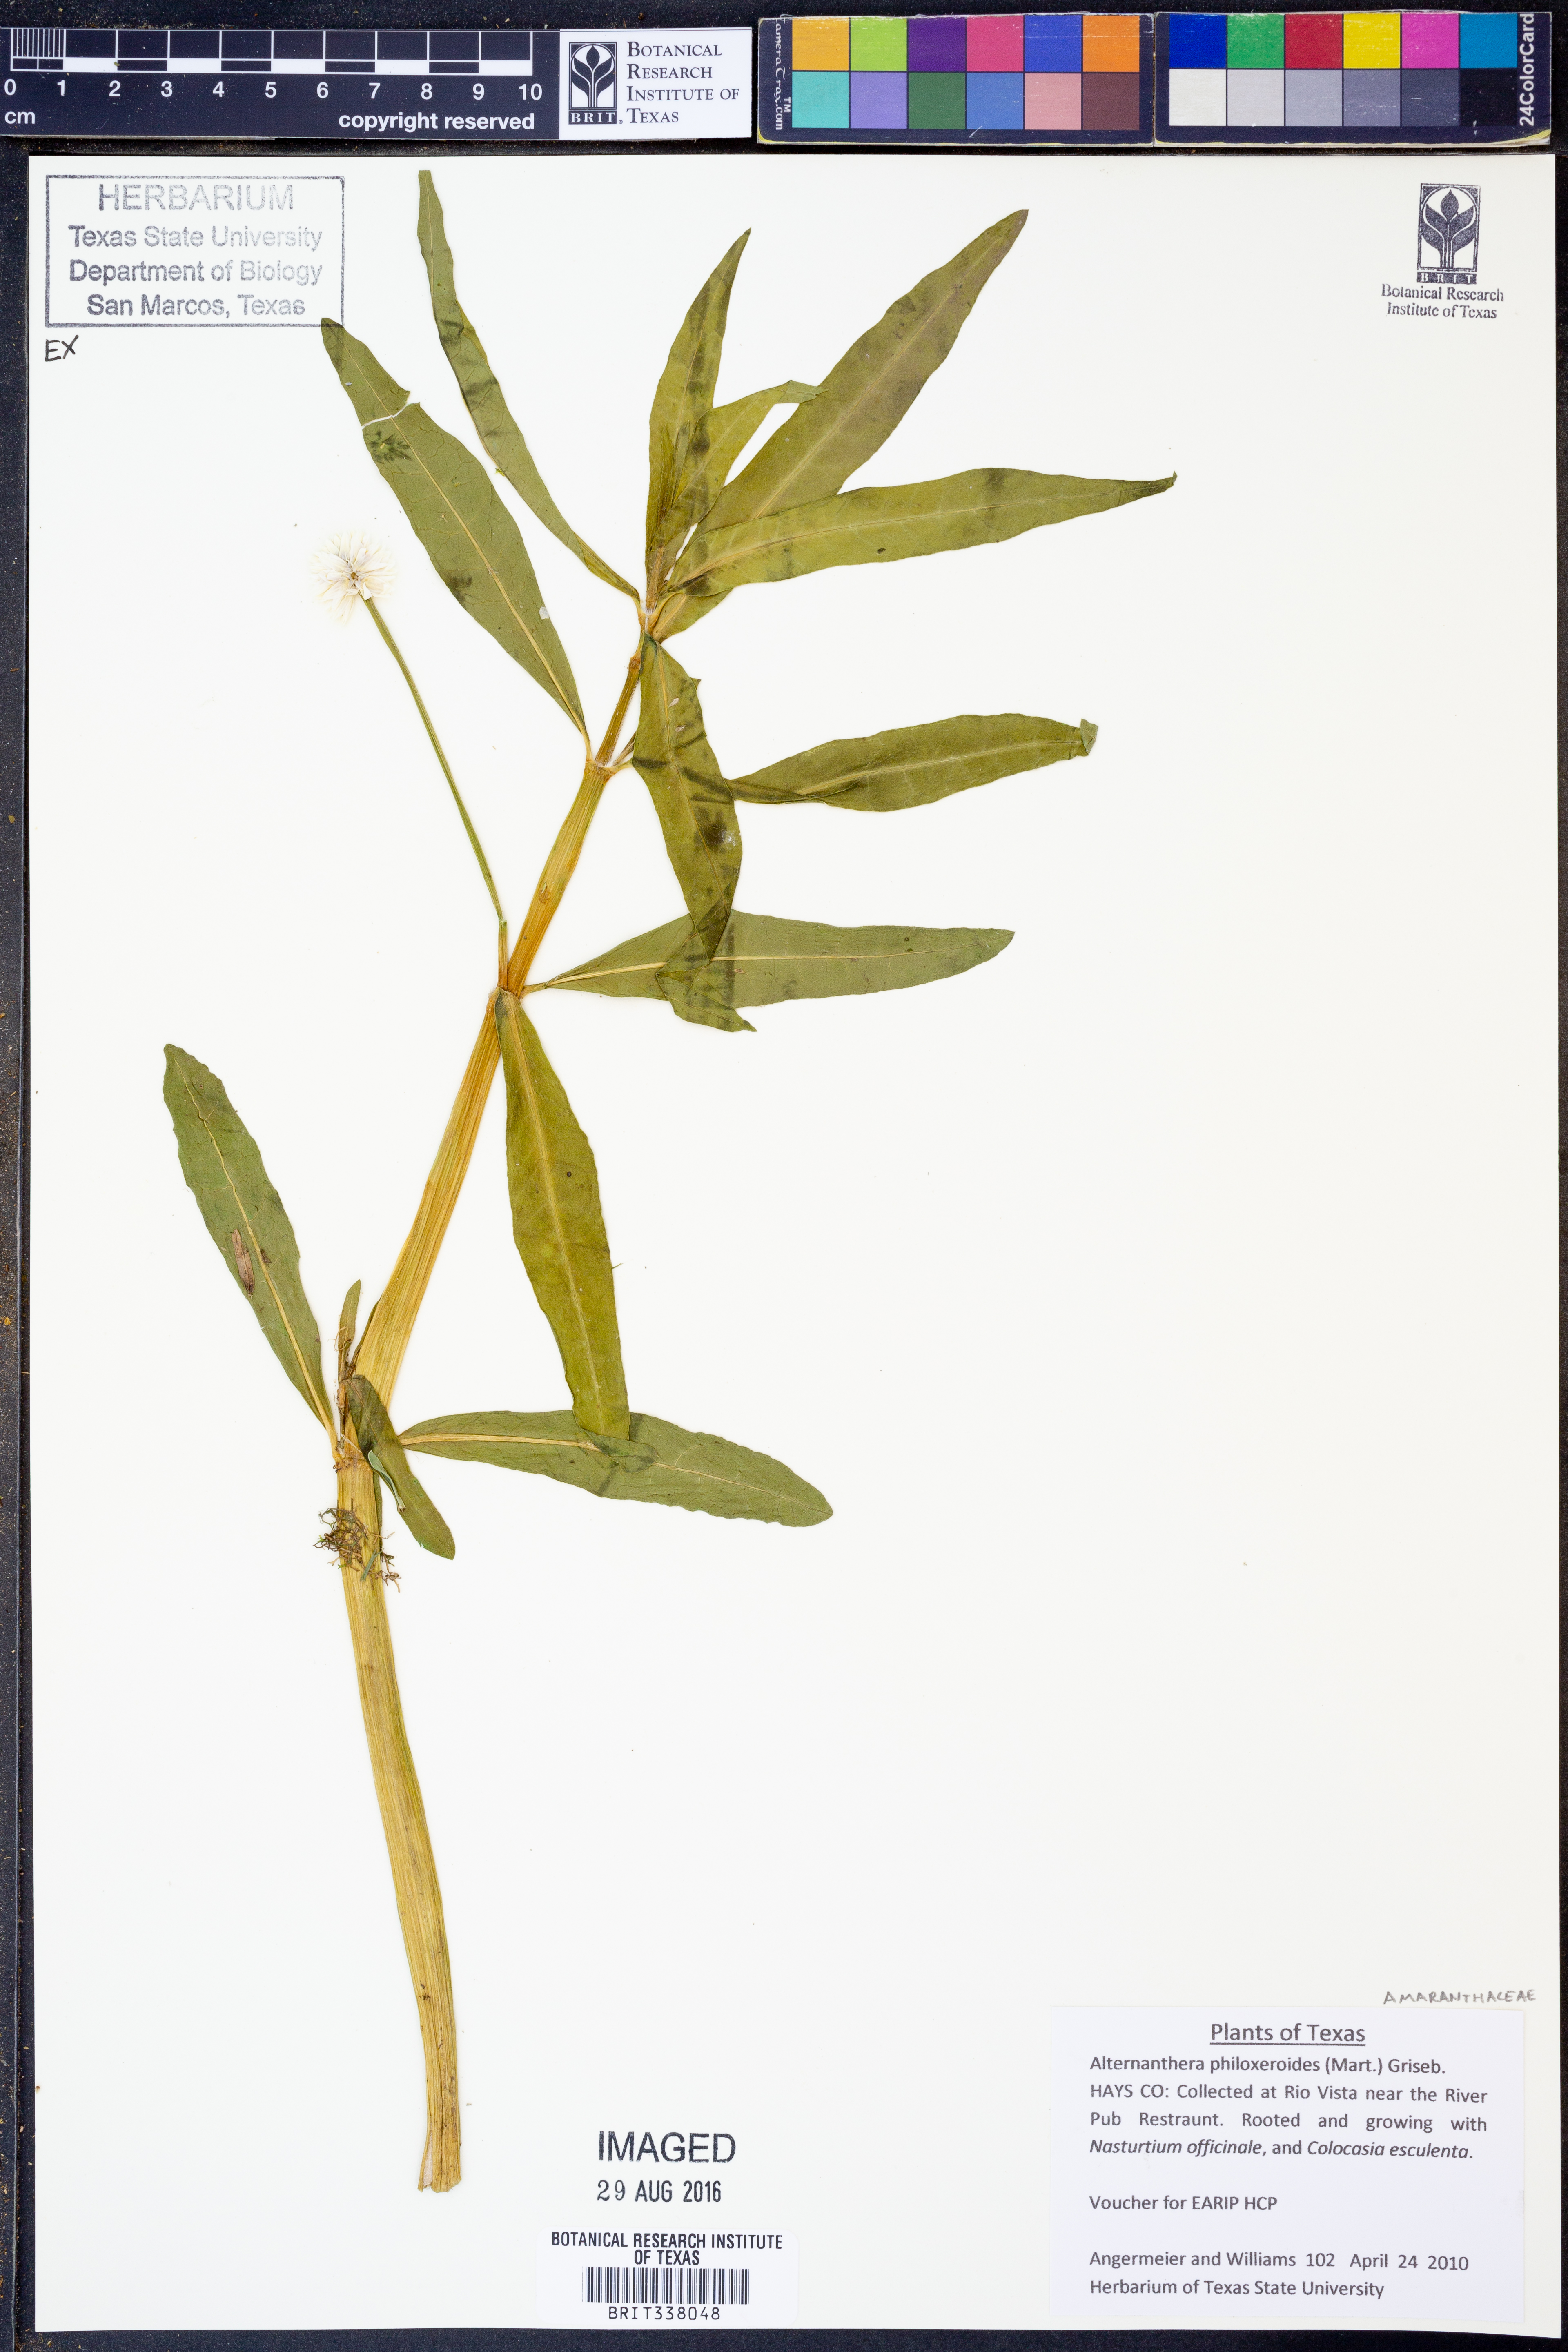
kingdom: Plantae
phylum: Tracheophyta
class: Magnoliopsida
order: Caryophyllales
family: Amaranthaceae
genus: Alternanthera
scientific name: Alternanthera philoxeroides
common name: Alligatorweed
